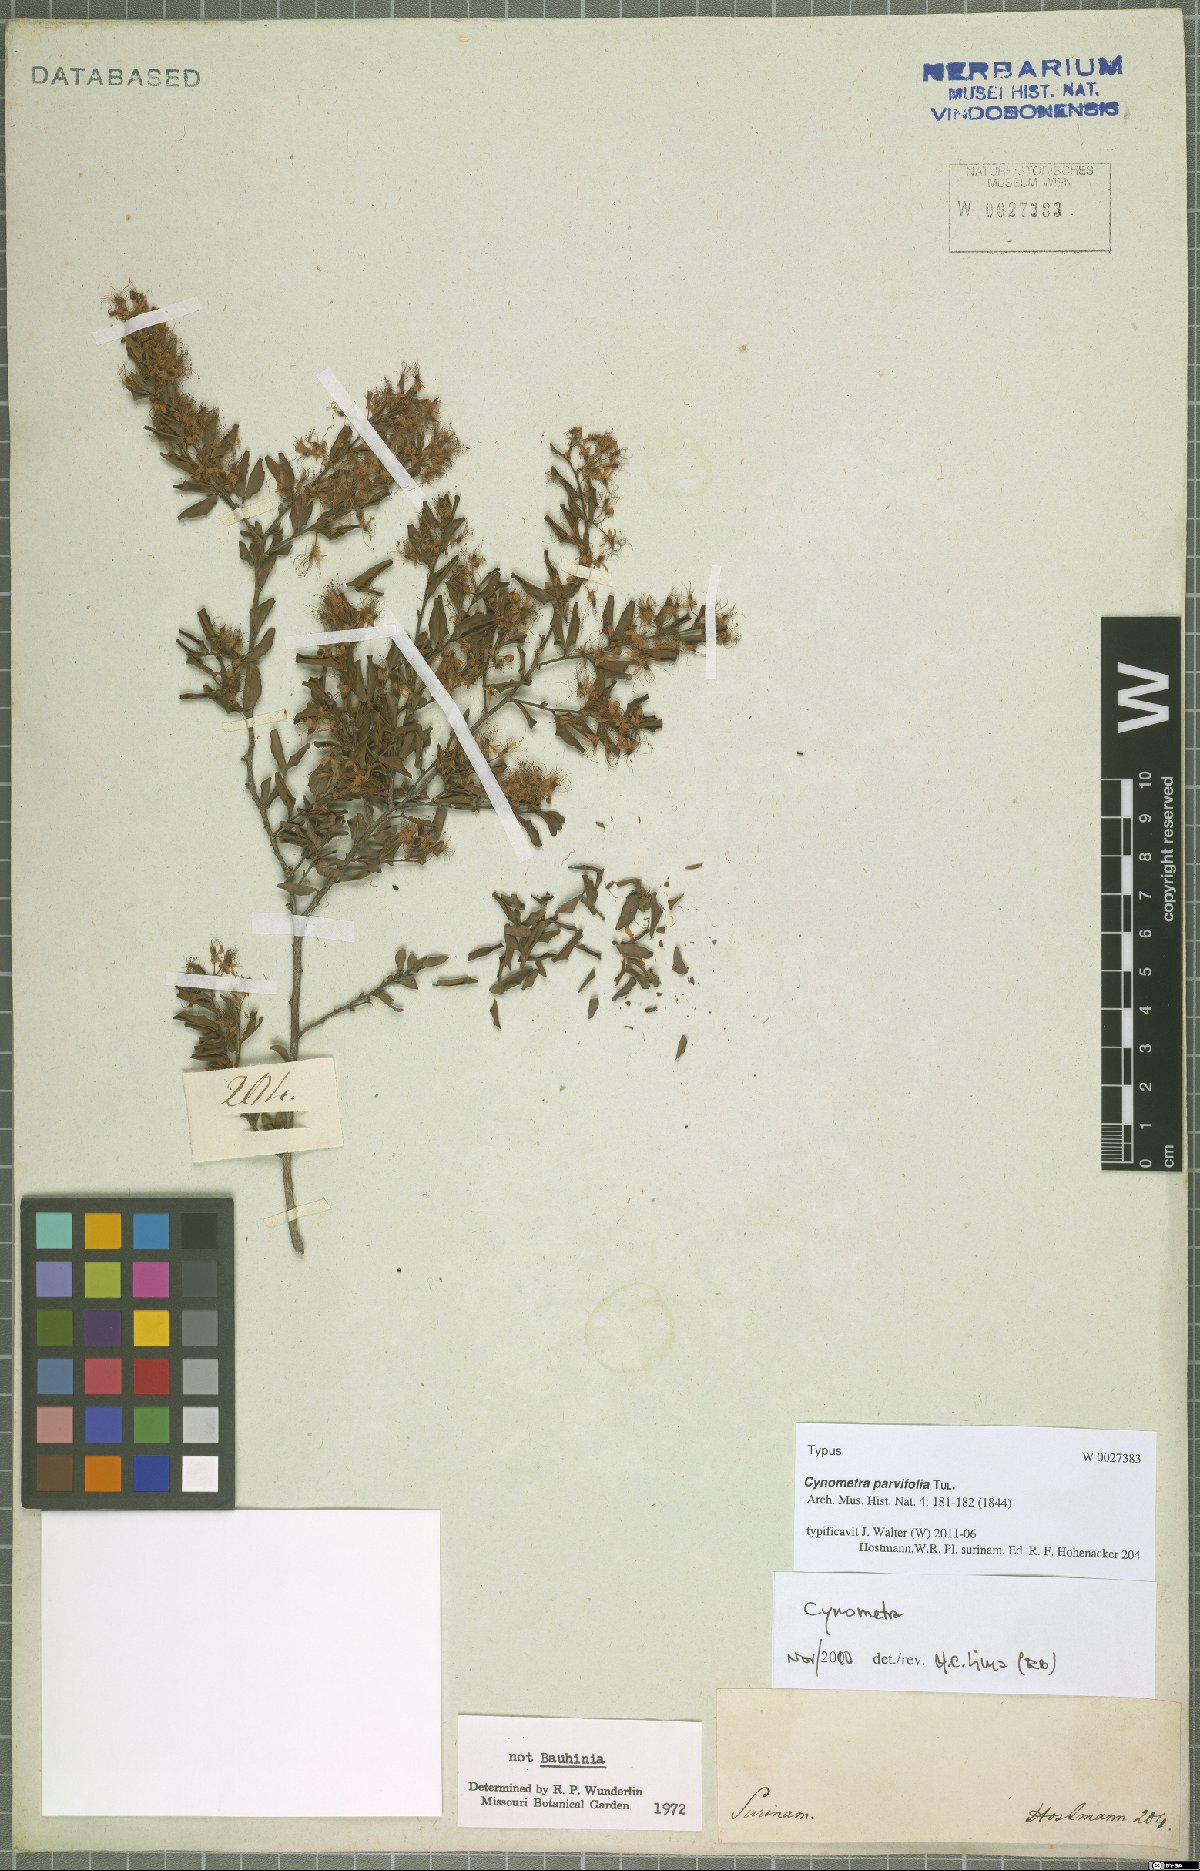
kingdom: Plantae
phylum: Tracheophyta
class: Magnoliopsida
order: Fabales
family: Fabaceae
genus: Cynometra
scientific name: Cynometra parvifolia
